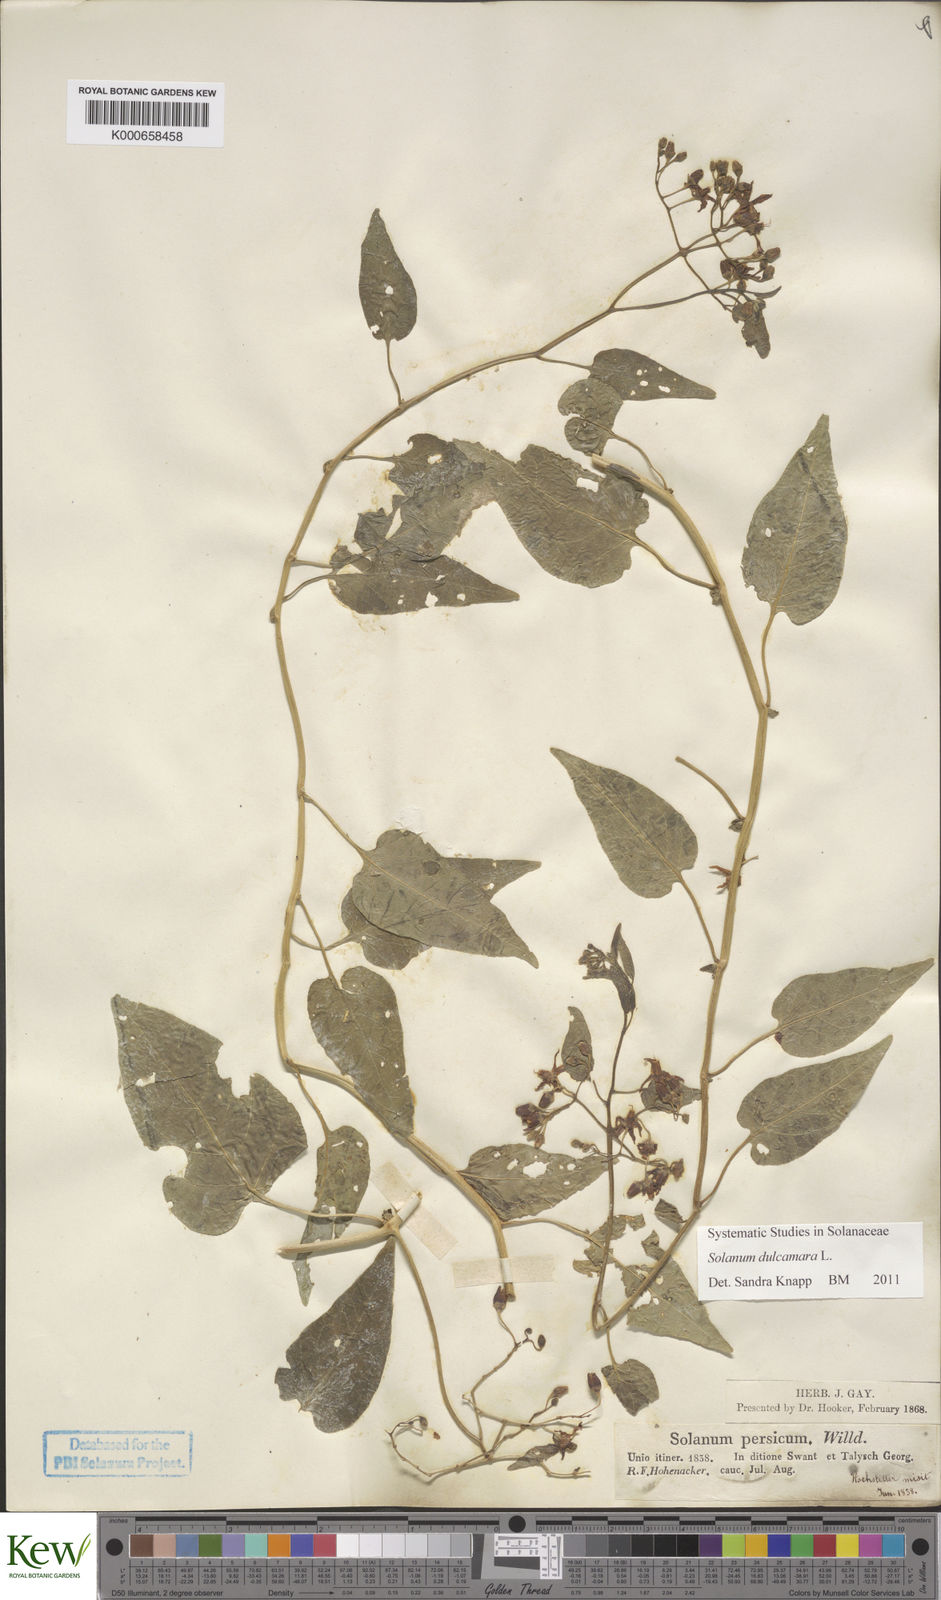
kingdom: Plantae
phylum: Tracheophyta
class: Magnoliopsida
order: Solanales
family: Solanaceae
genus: Solanum
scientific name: Solanum dulcamara
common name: Climbing nightshade
